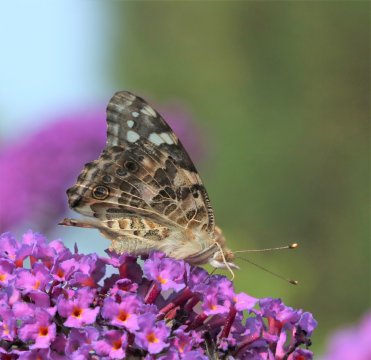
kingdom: Animalia
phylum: Arthropoda
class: Insecta
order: Lepidoptera
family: Nymphalidae
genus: Vanessa
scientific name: Vanessa cardui
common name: Painted Lady
